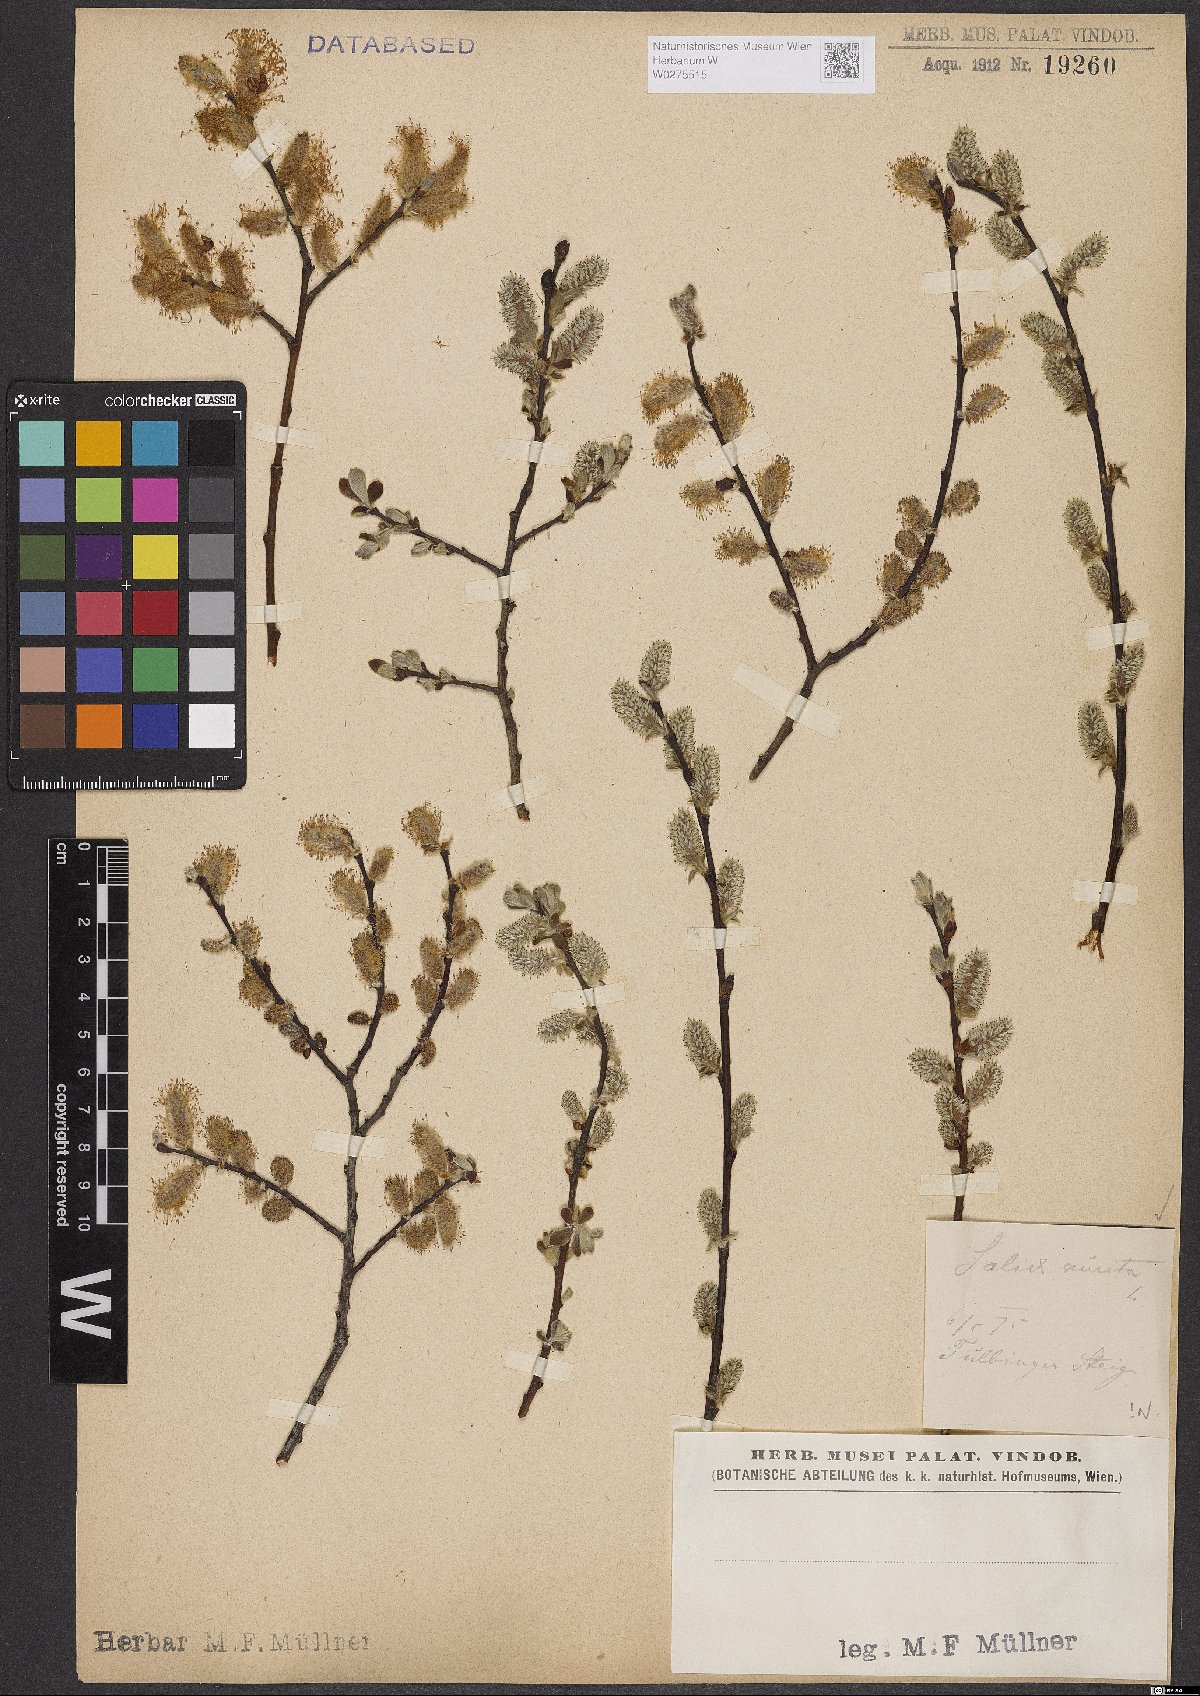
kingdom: Plantae
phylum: Tracheophyta
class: Magnoliopsida
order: Malpighiales
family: Salicaceae
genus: Salix
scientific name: Salix aurita
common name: Eared willow
